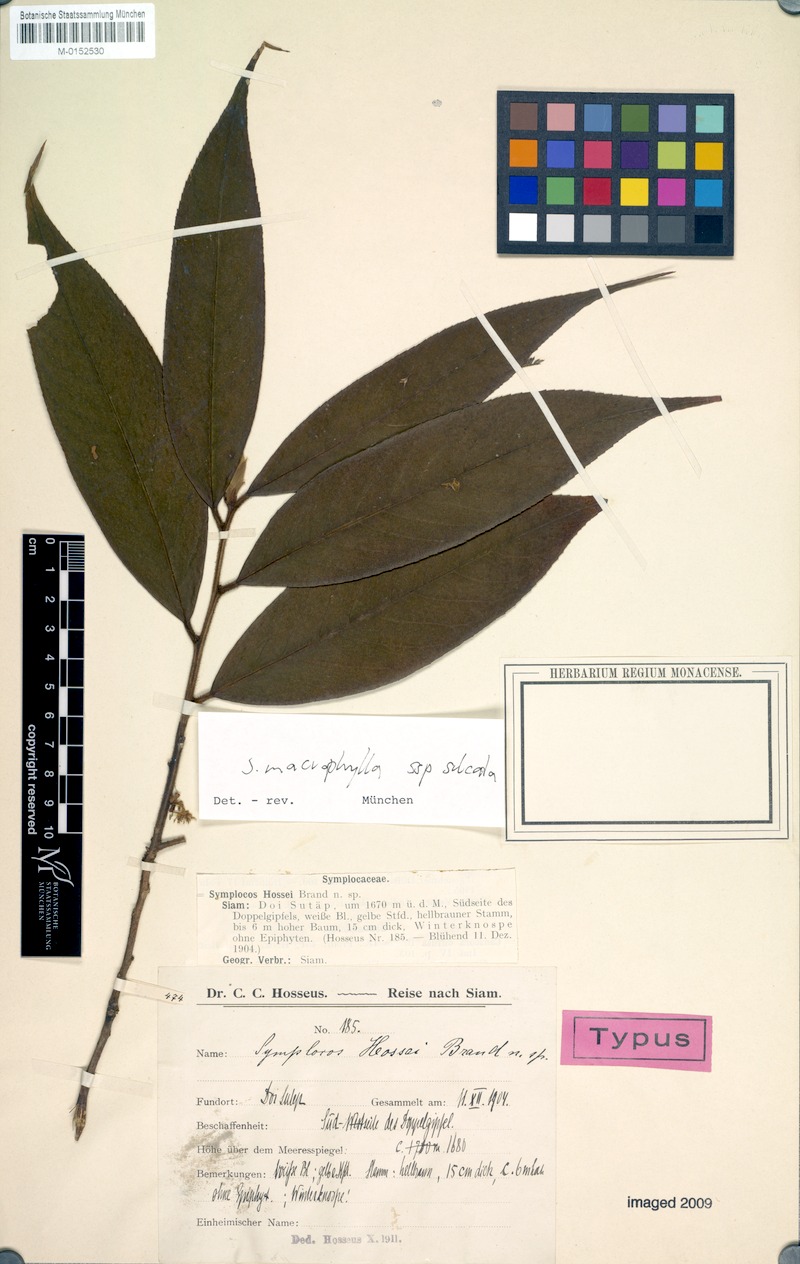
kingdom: Plantae
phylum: Tracheophyta
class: Magnoliopsida
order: Ericales
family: Symplocaceae
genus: Symplocos
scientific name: Symplocos sulcata
